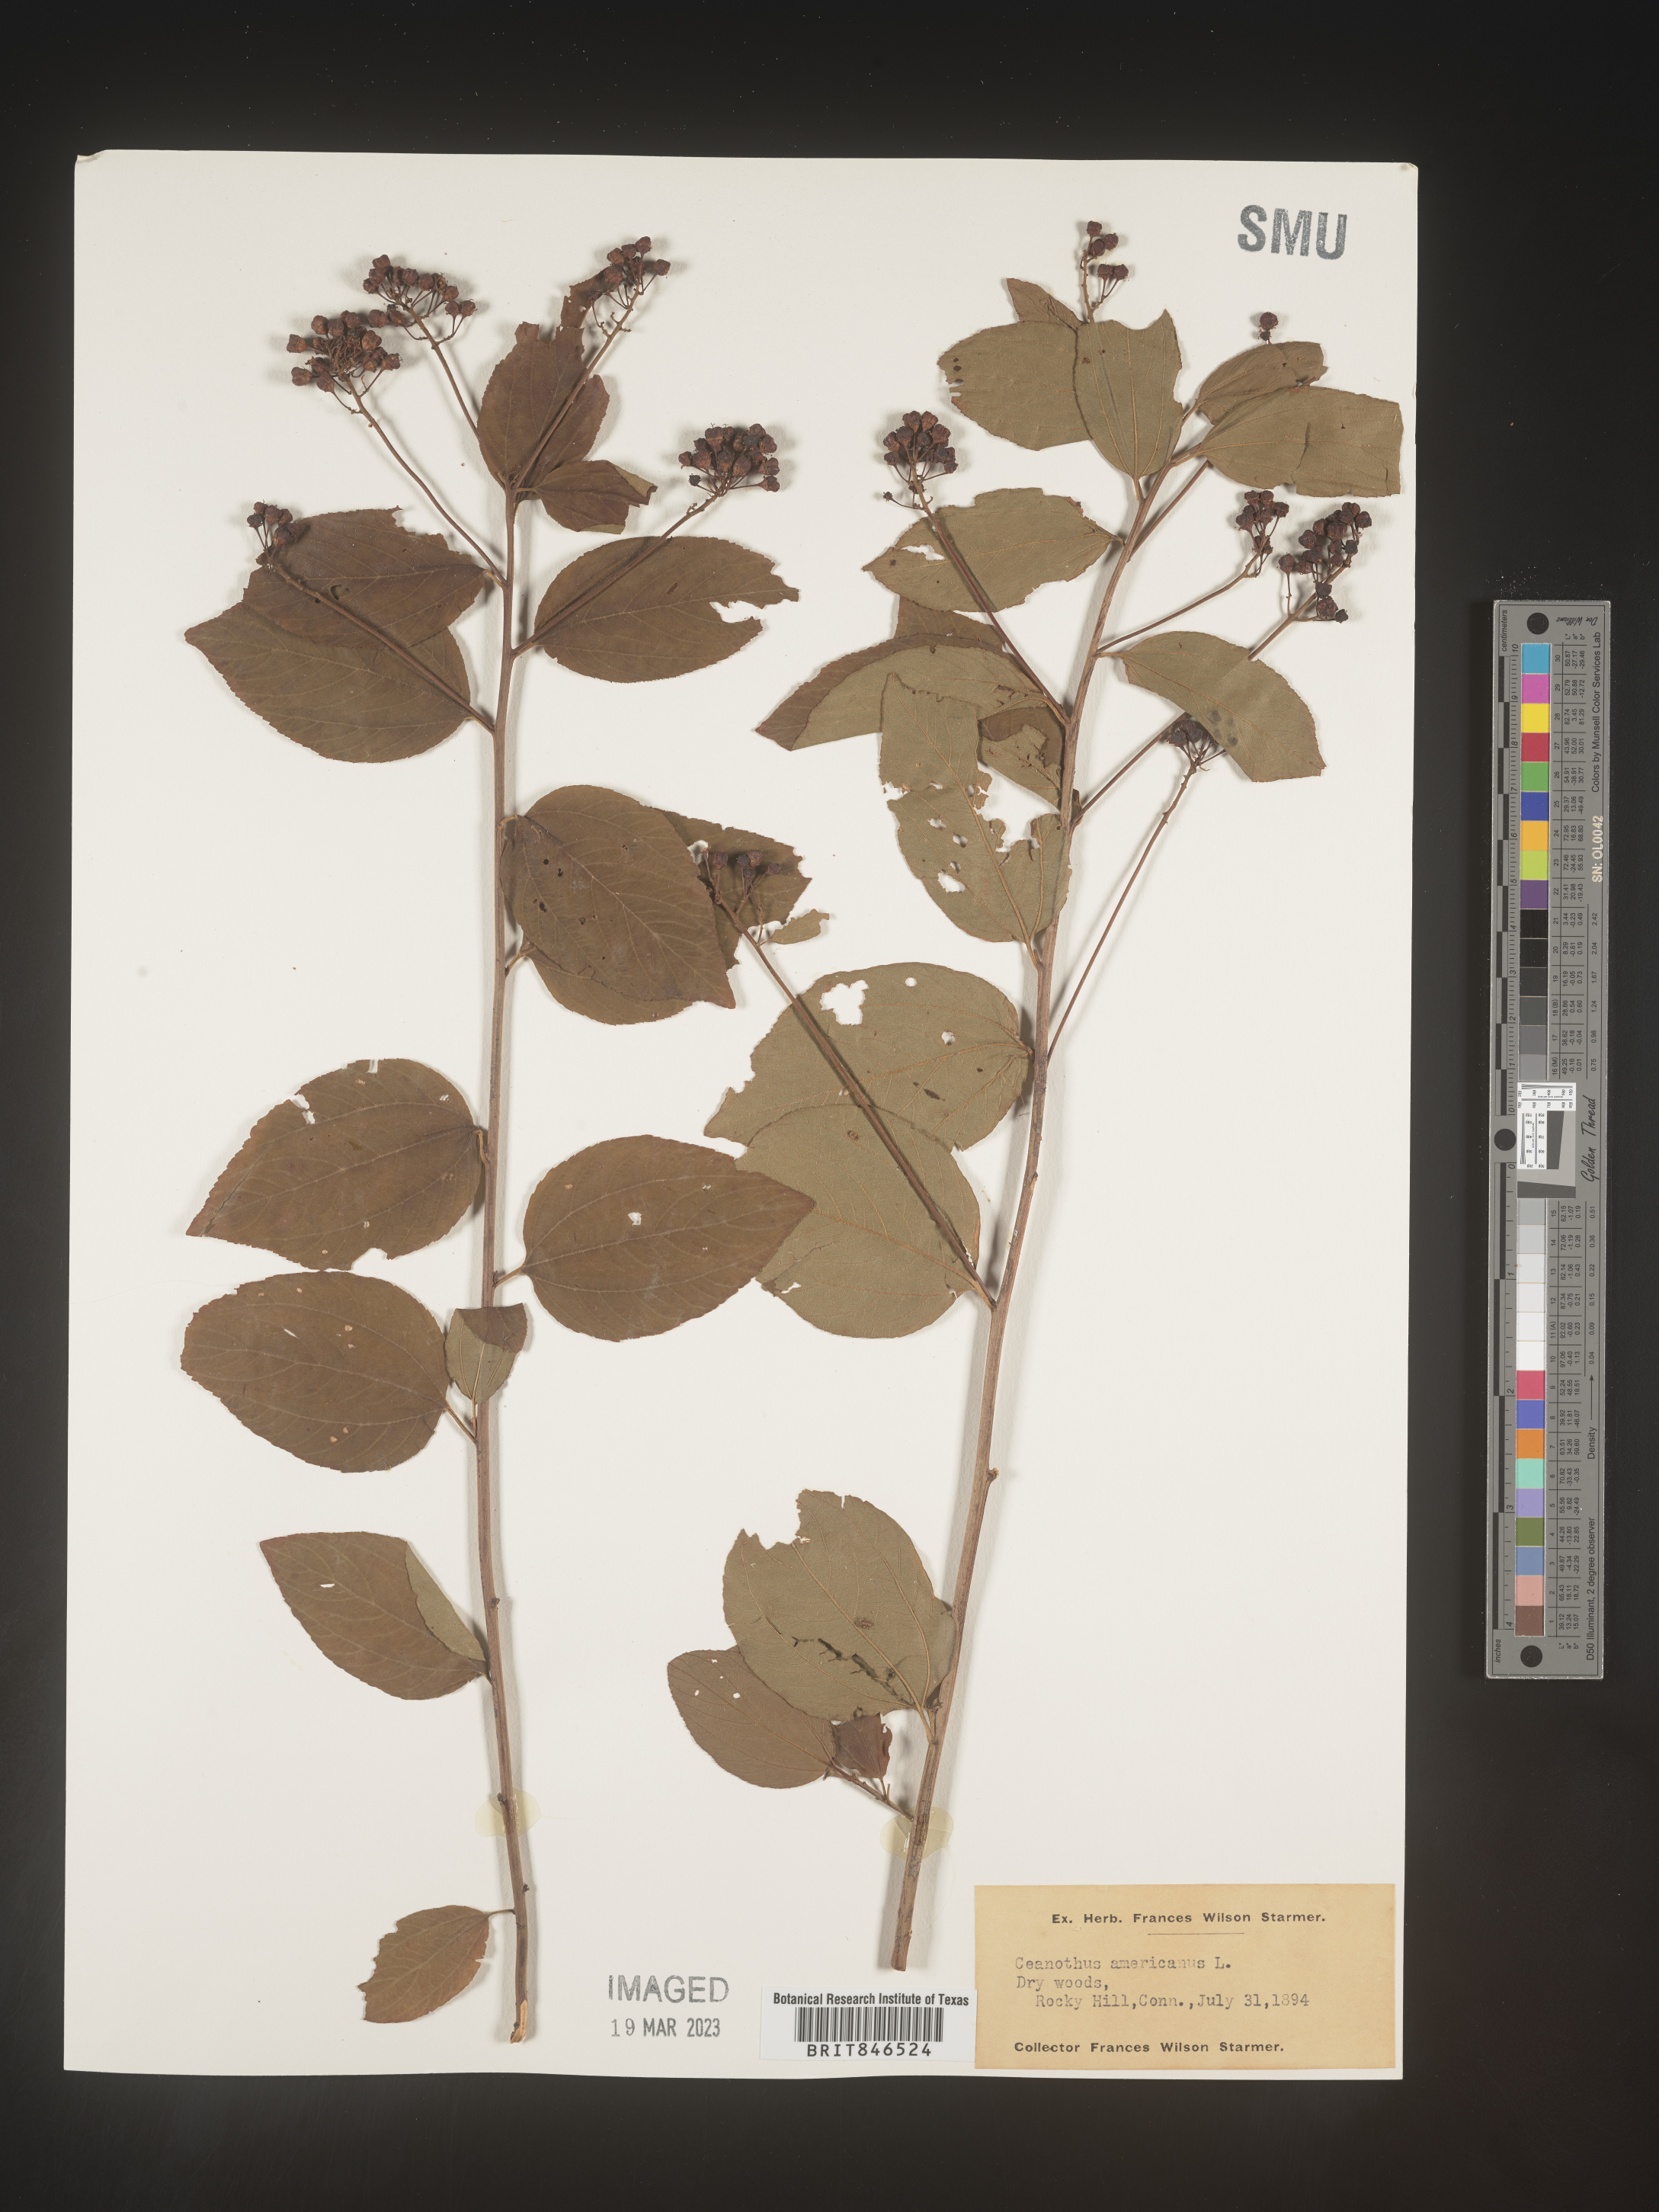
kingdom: Plantae
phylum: Tracheophyta
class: Magnoliopsida
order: Rosales
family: Rhamnaceae
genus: Ceanothus
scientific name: Ceanothus americanus
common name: Redroot
